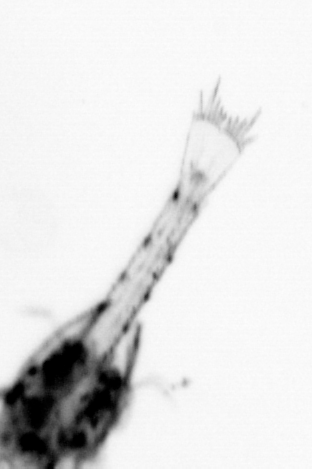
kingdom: Animalia
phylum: Arthropoda
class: Malacostraca
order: Decapoda
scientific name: Decapoda
